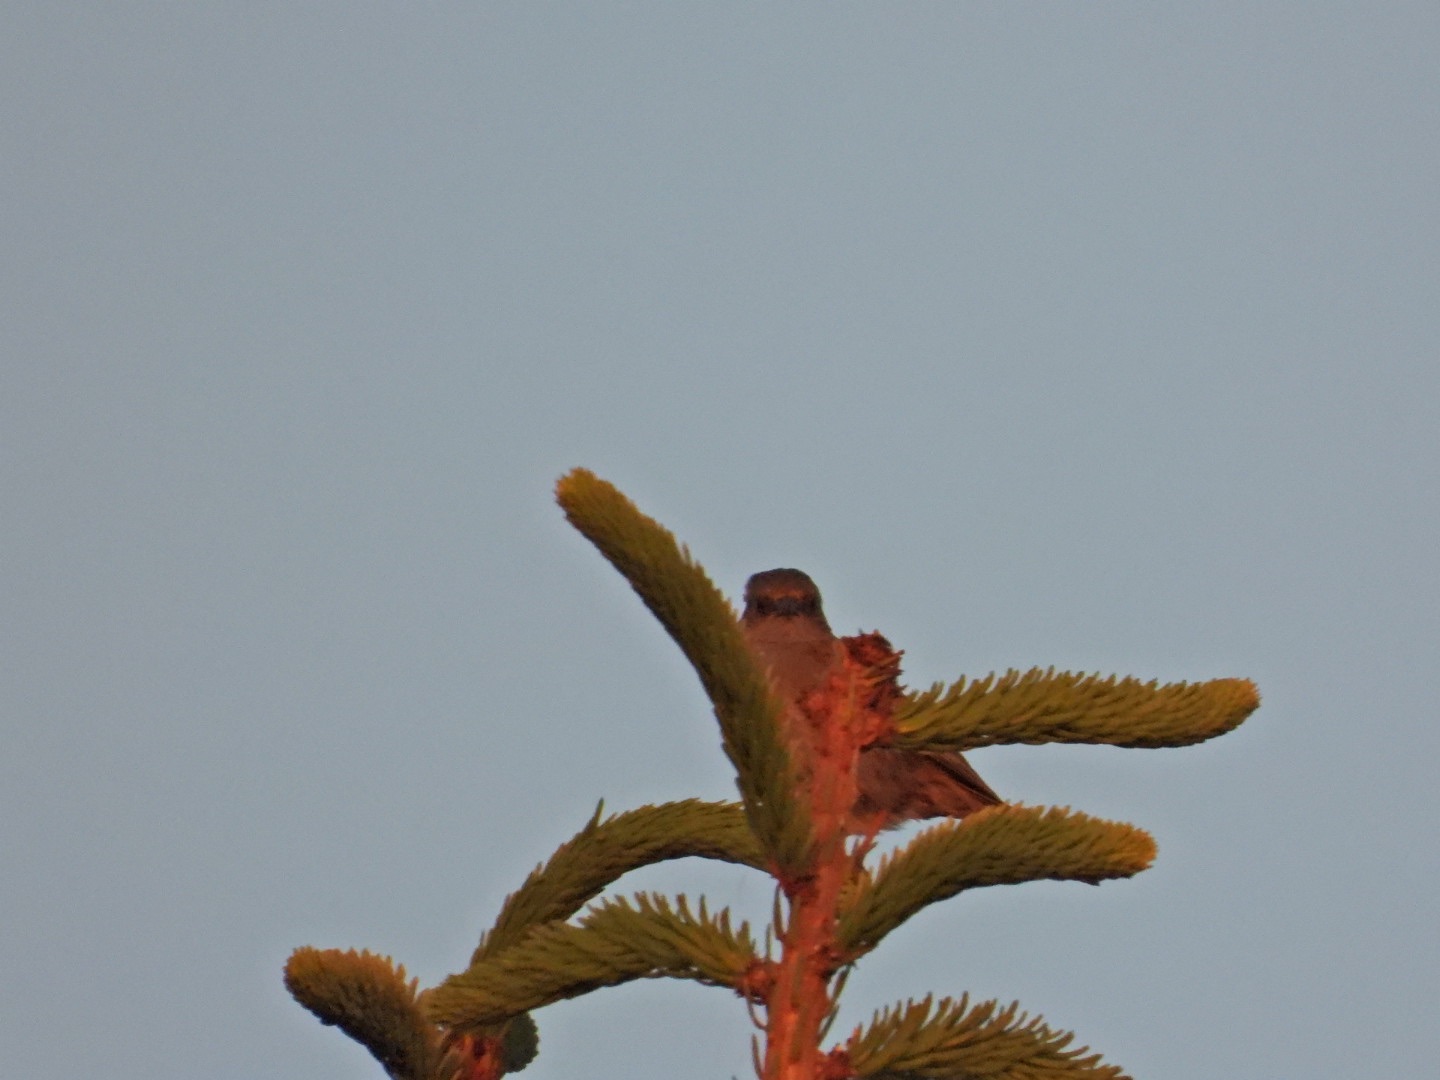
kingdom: Animalia
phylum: Chordata
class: Aves
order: Passeriformes
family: Prunellidae
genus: Prunella
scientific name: Prunella modularis
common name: Jernspurv
